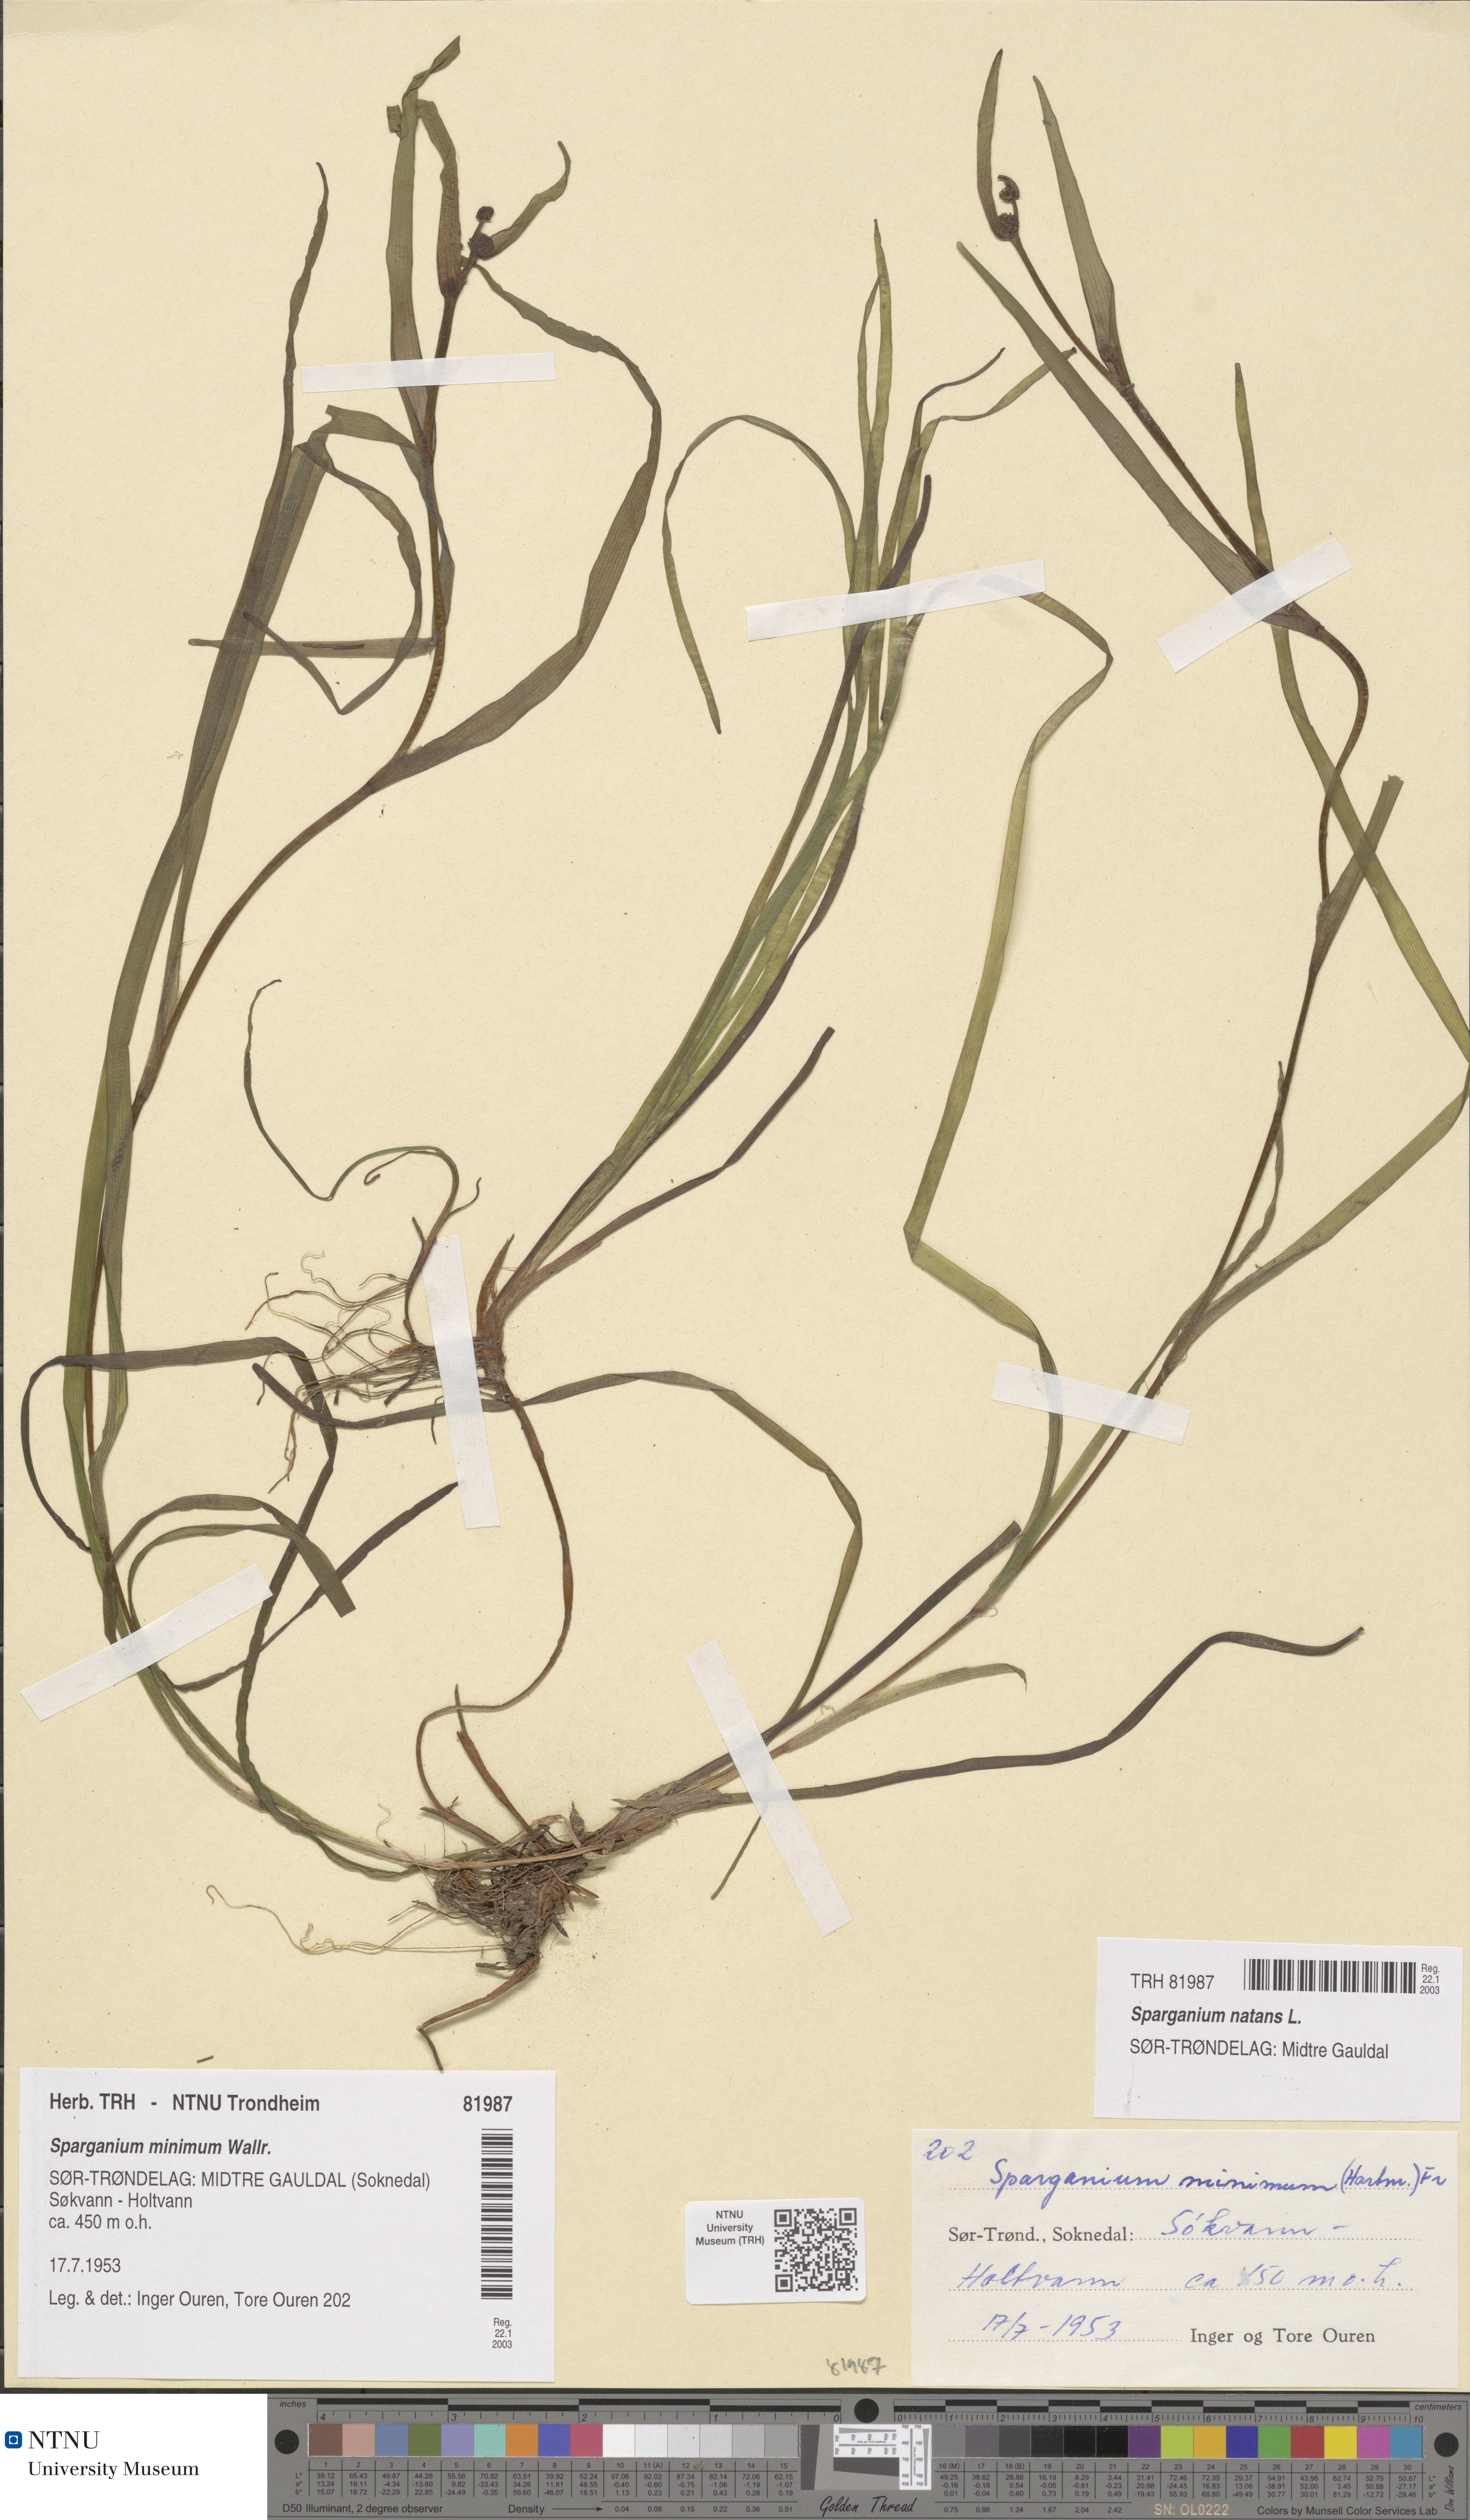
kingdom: Plantae
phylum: Tracheophyta
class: Liliopsida
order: Poales
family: Typhaceae
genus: Sparganium
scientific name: Sparganium natans
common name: Least bur-reed
